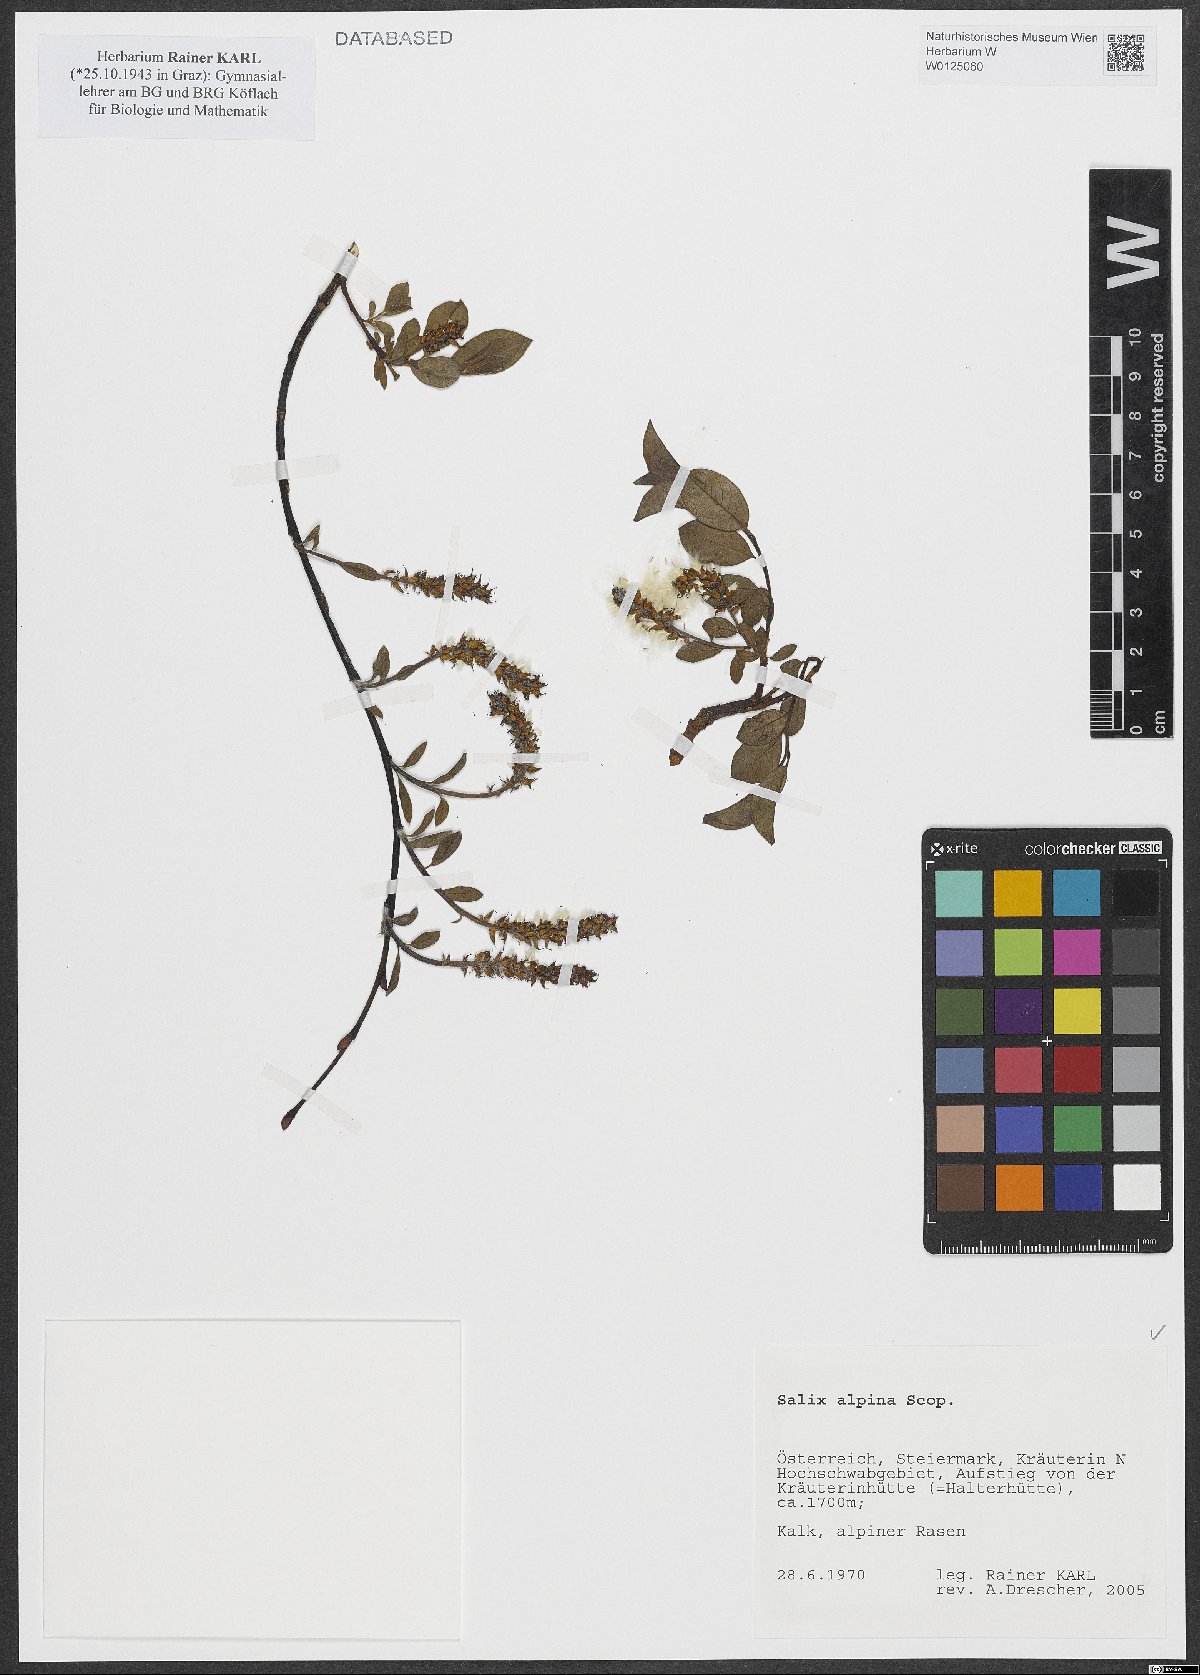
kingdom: Plantae
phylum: Tracheophyta
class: Magnoliopsida
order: Malpighiales
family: Salicaceae
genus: Salix
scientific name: Salix alpina
